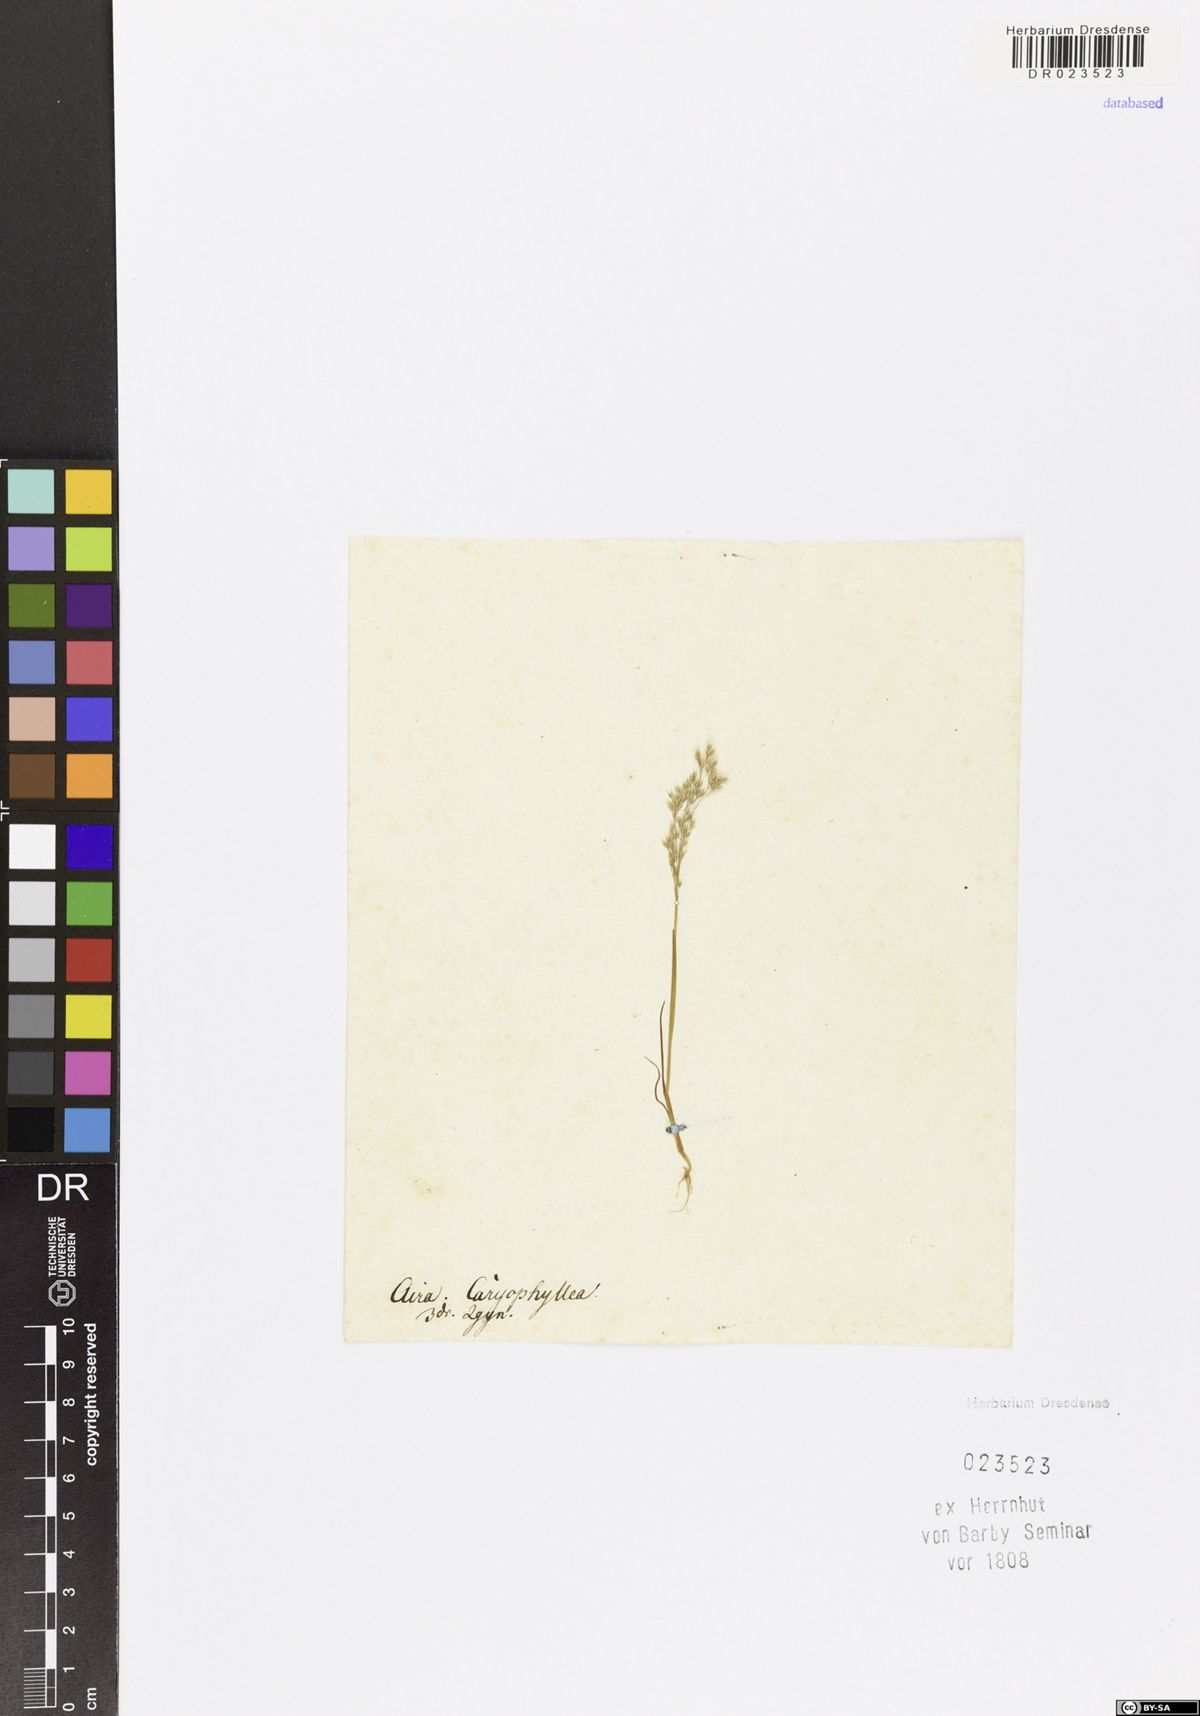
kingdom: Plantae
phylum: Tracheophyta
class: Liliopsida
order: Poales
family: Poaceae
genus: Aira
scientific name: Aira caryophyllea
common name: Silver hairgrass
